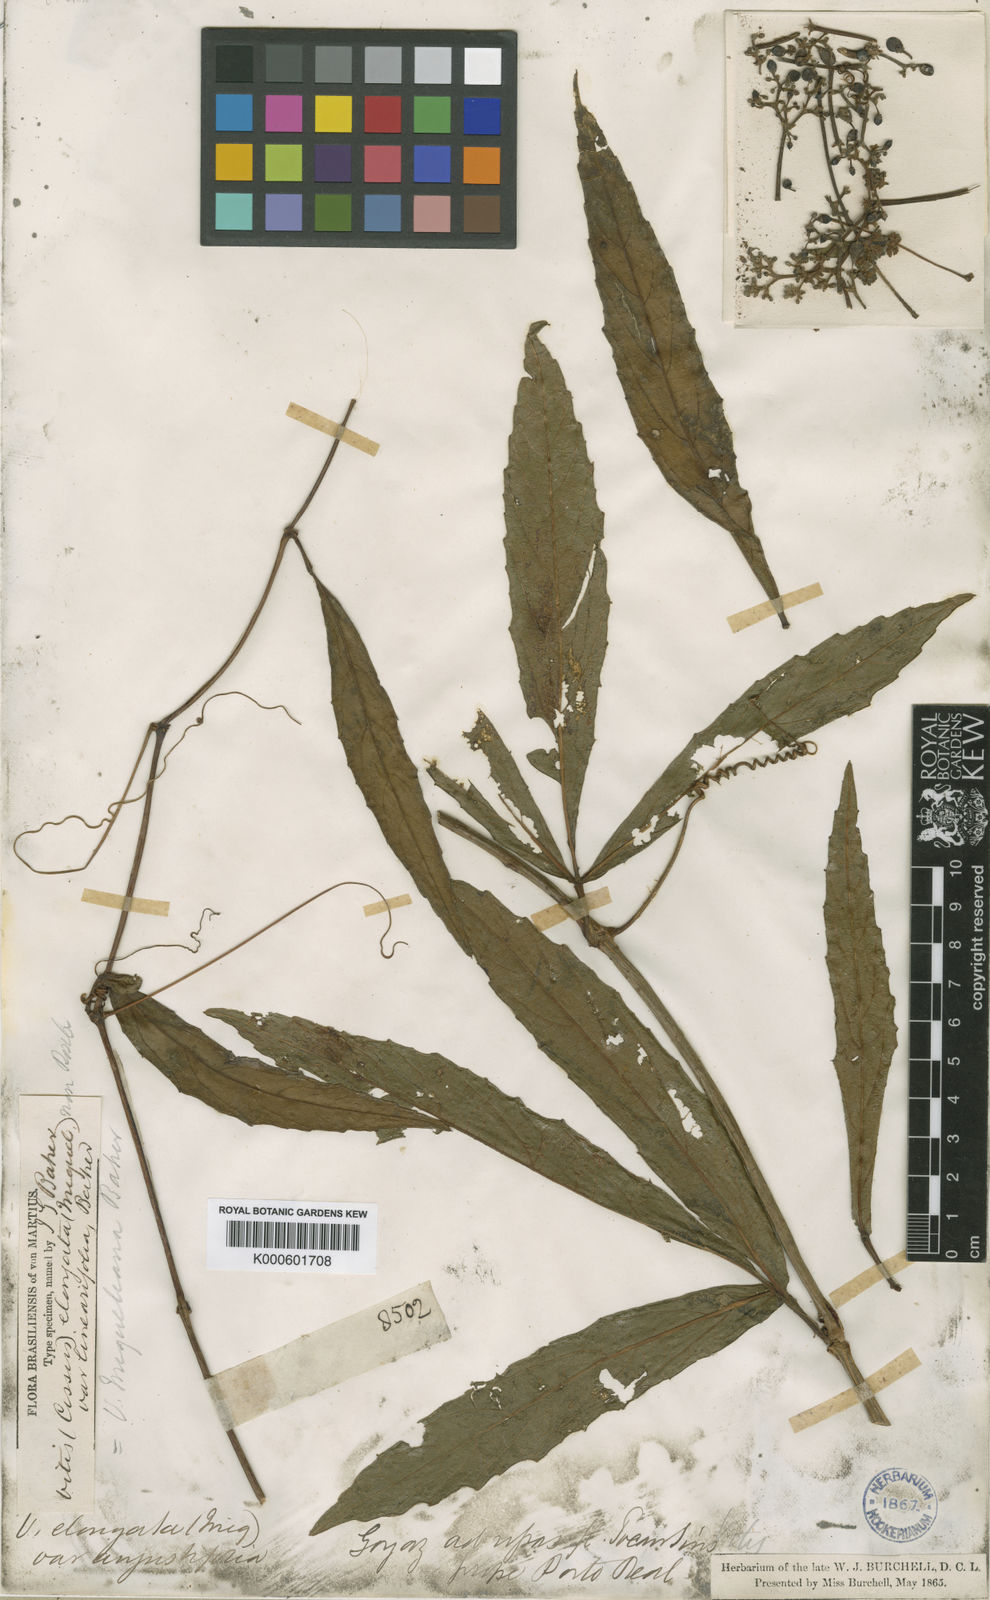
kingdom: Plantae
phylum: Tracheophyta
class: Magnoliopsida
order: Vitales
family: Vitaceae
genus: Cissus
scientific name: Cissus erosa
